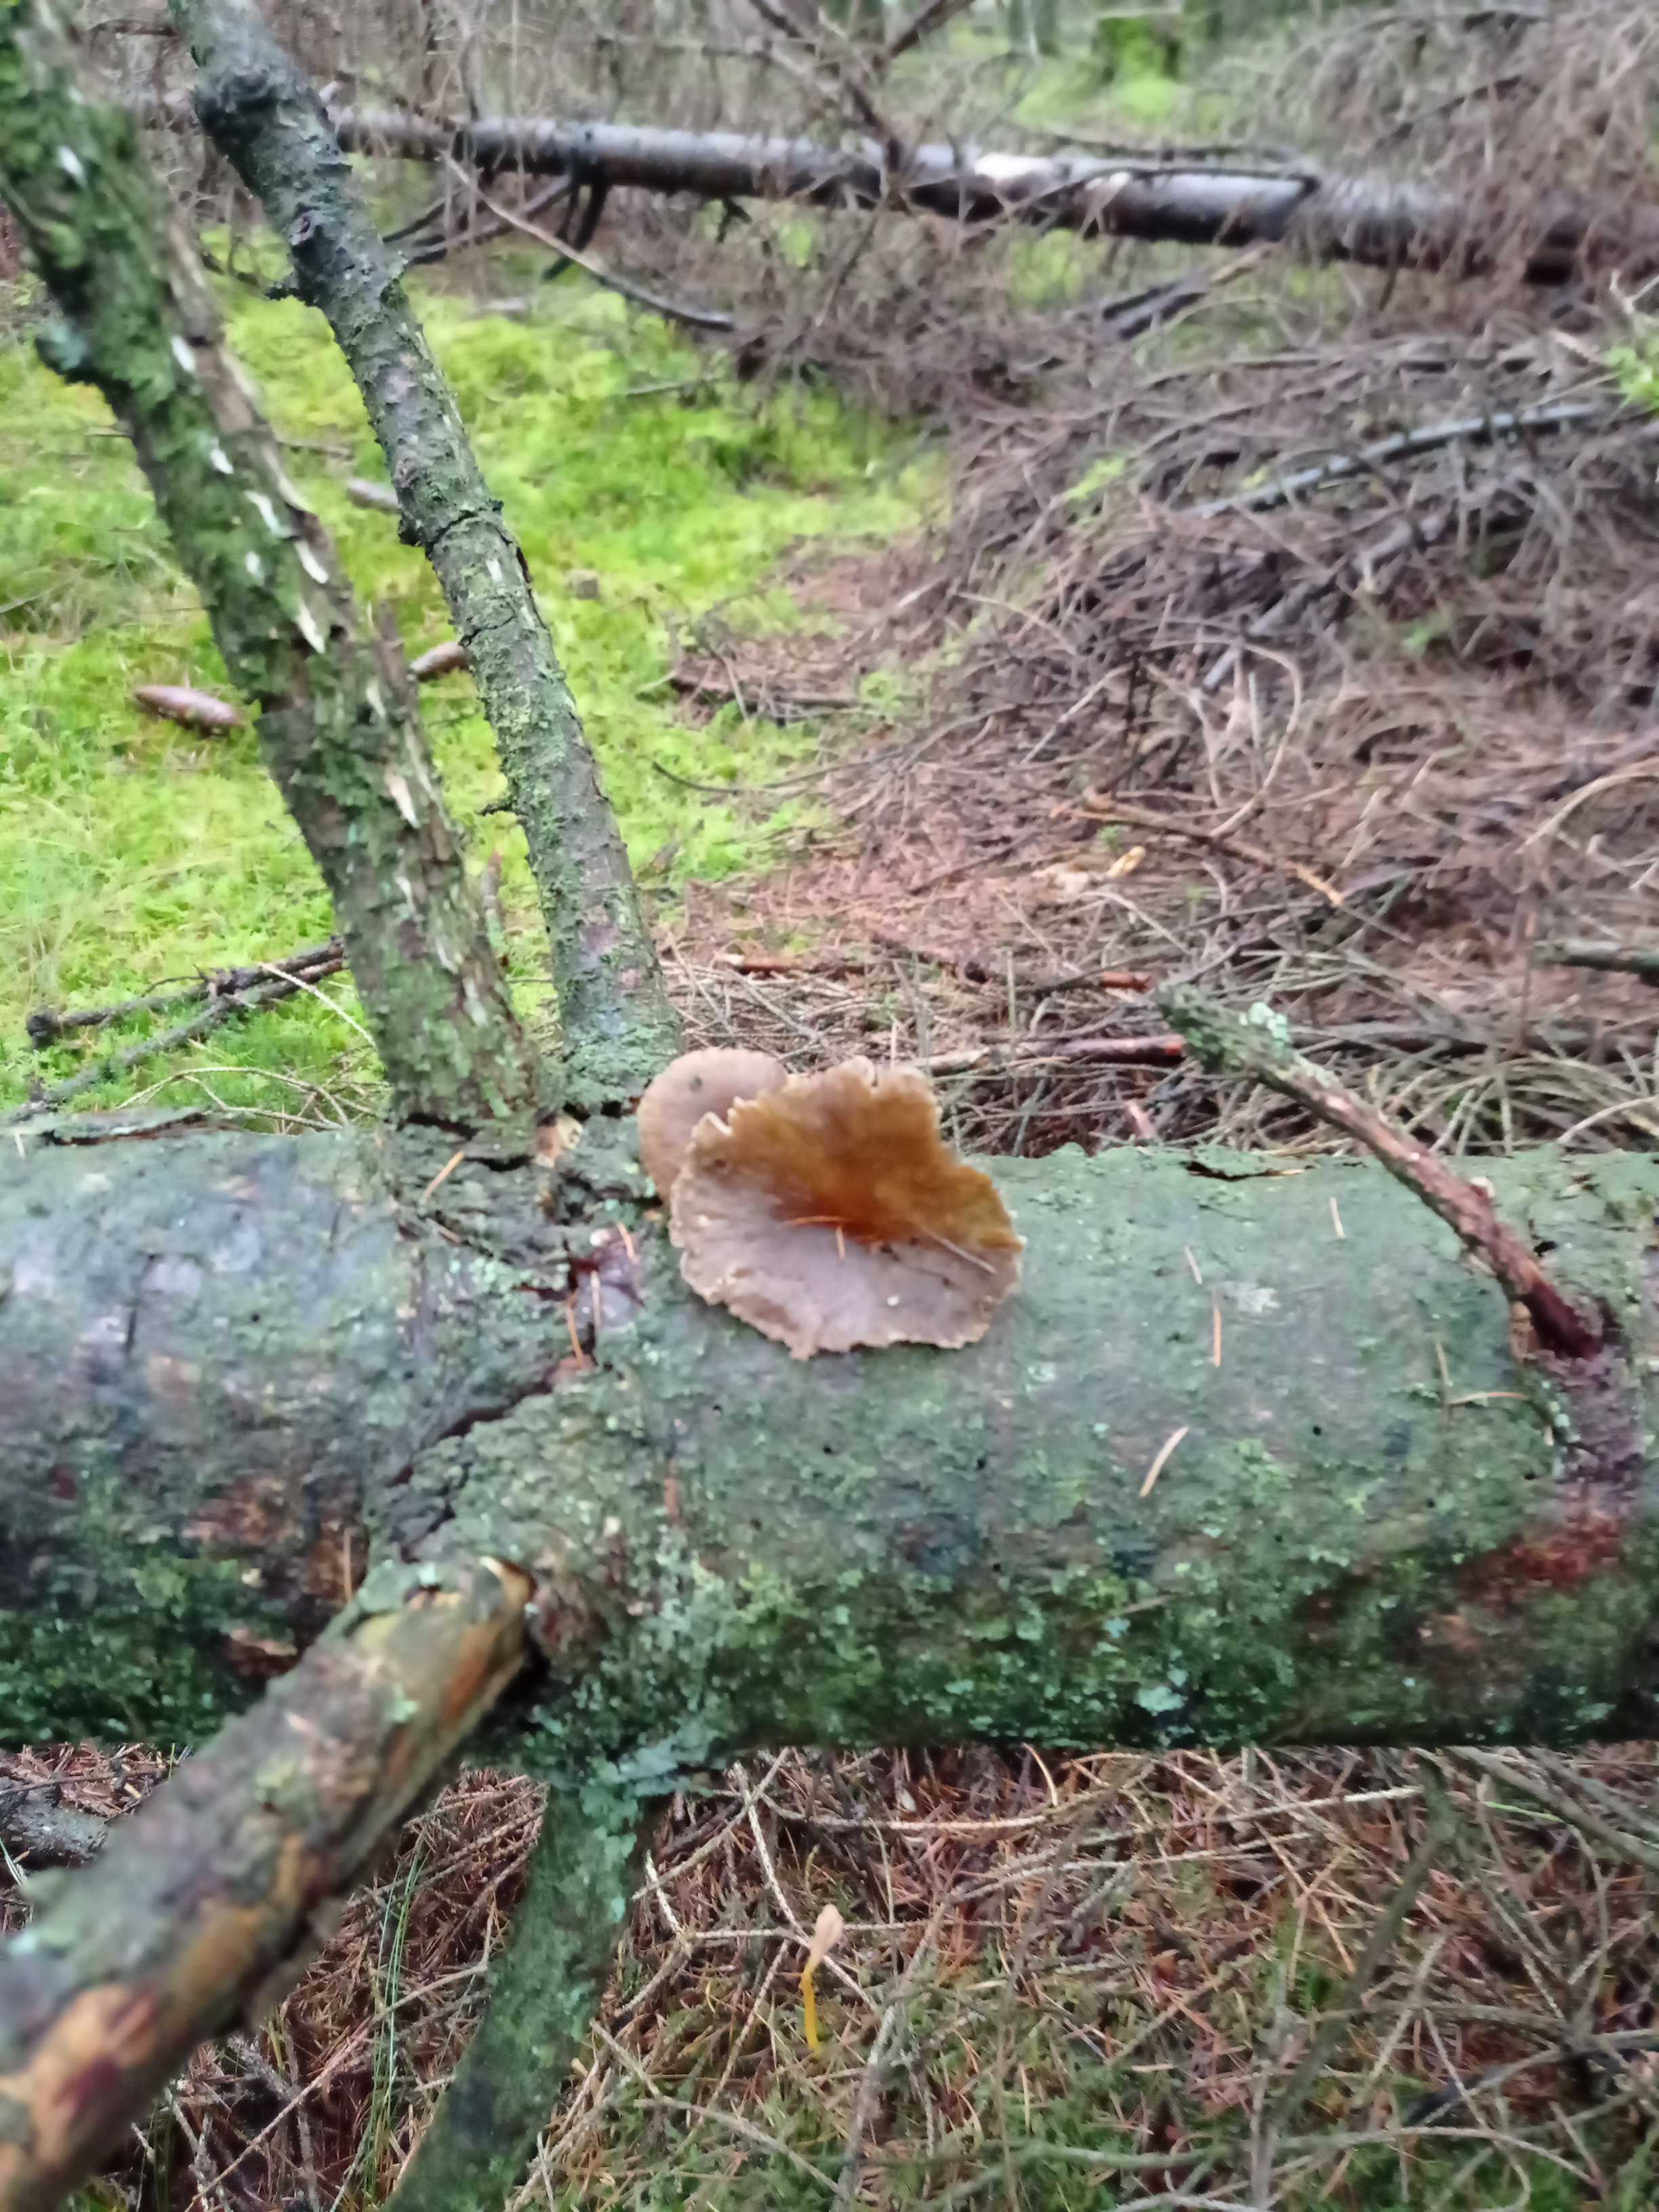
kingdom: Fungi
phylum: Basidiomycota
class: Agaricomycetes
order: Cantharellales
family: Hydnaceae
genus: Craterellus
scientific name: Craterellus tubaeformis
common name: tragt-kantarel
